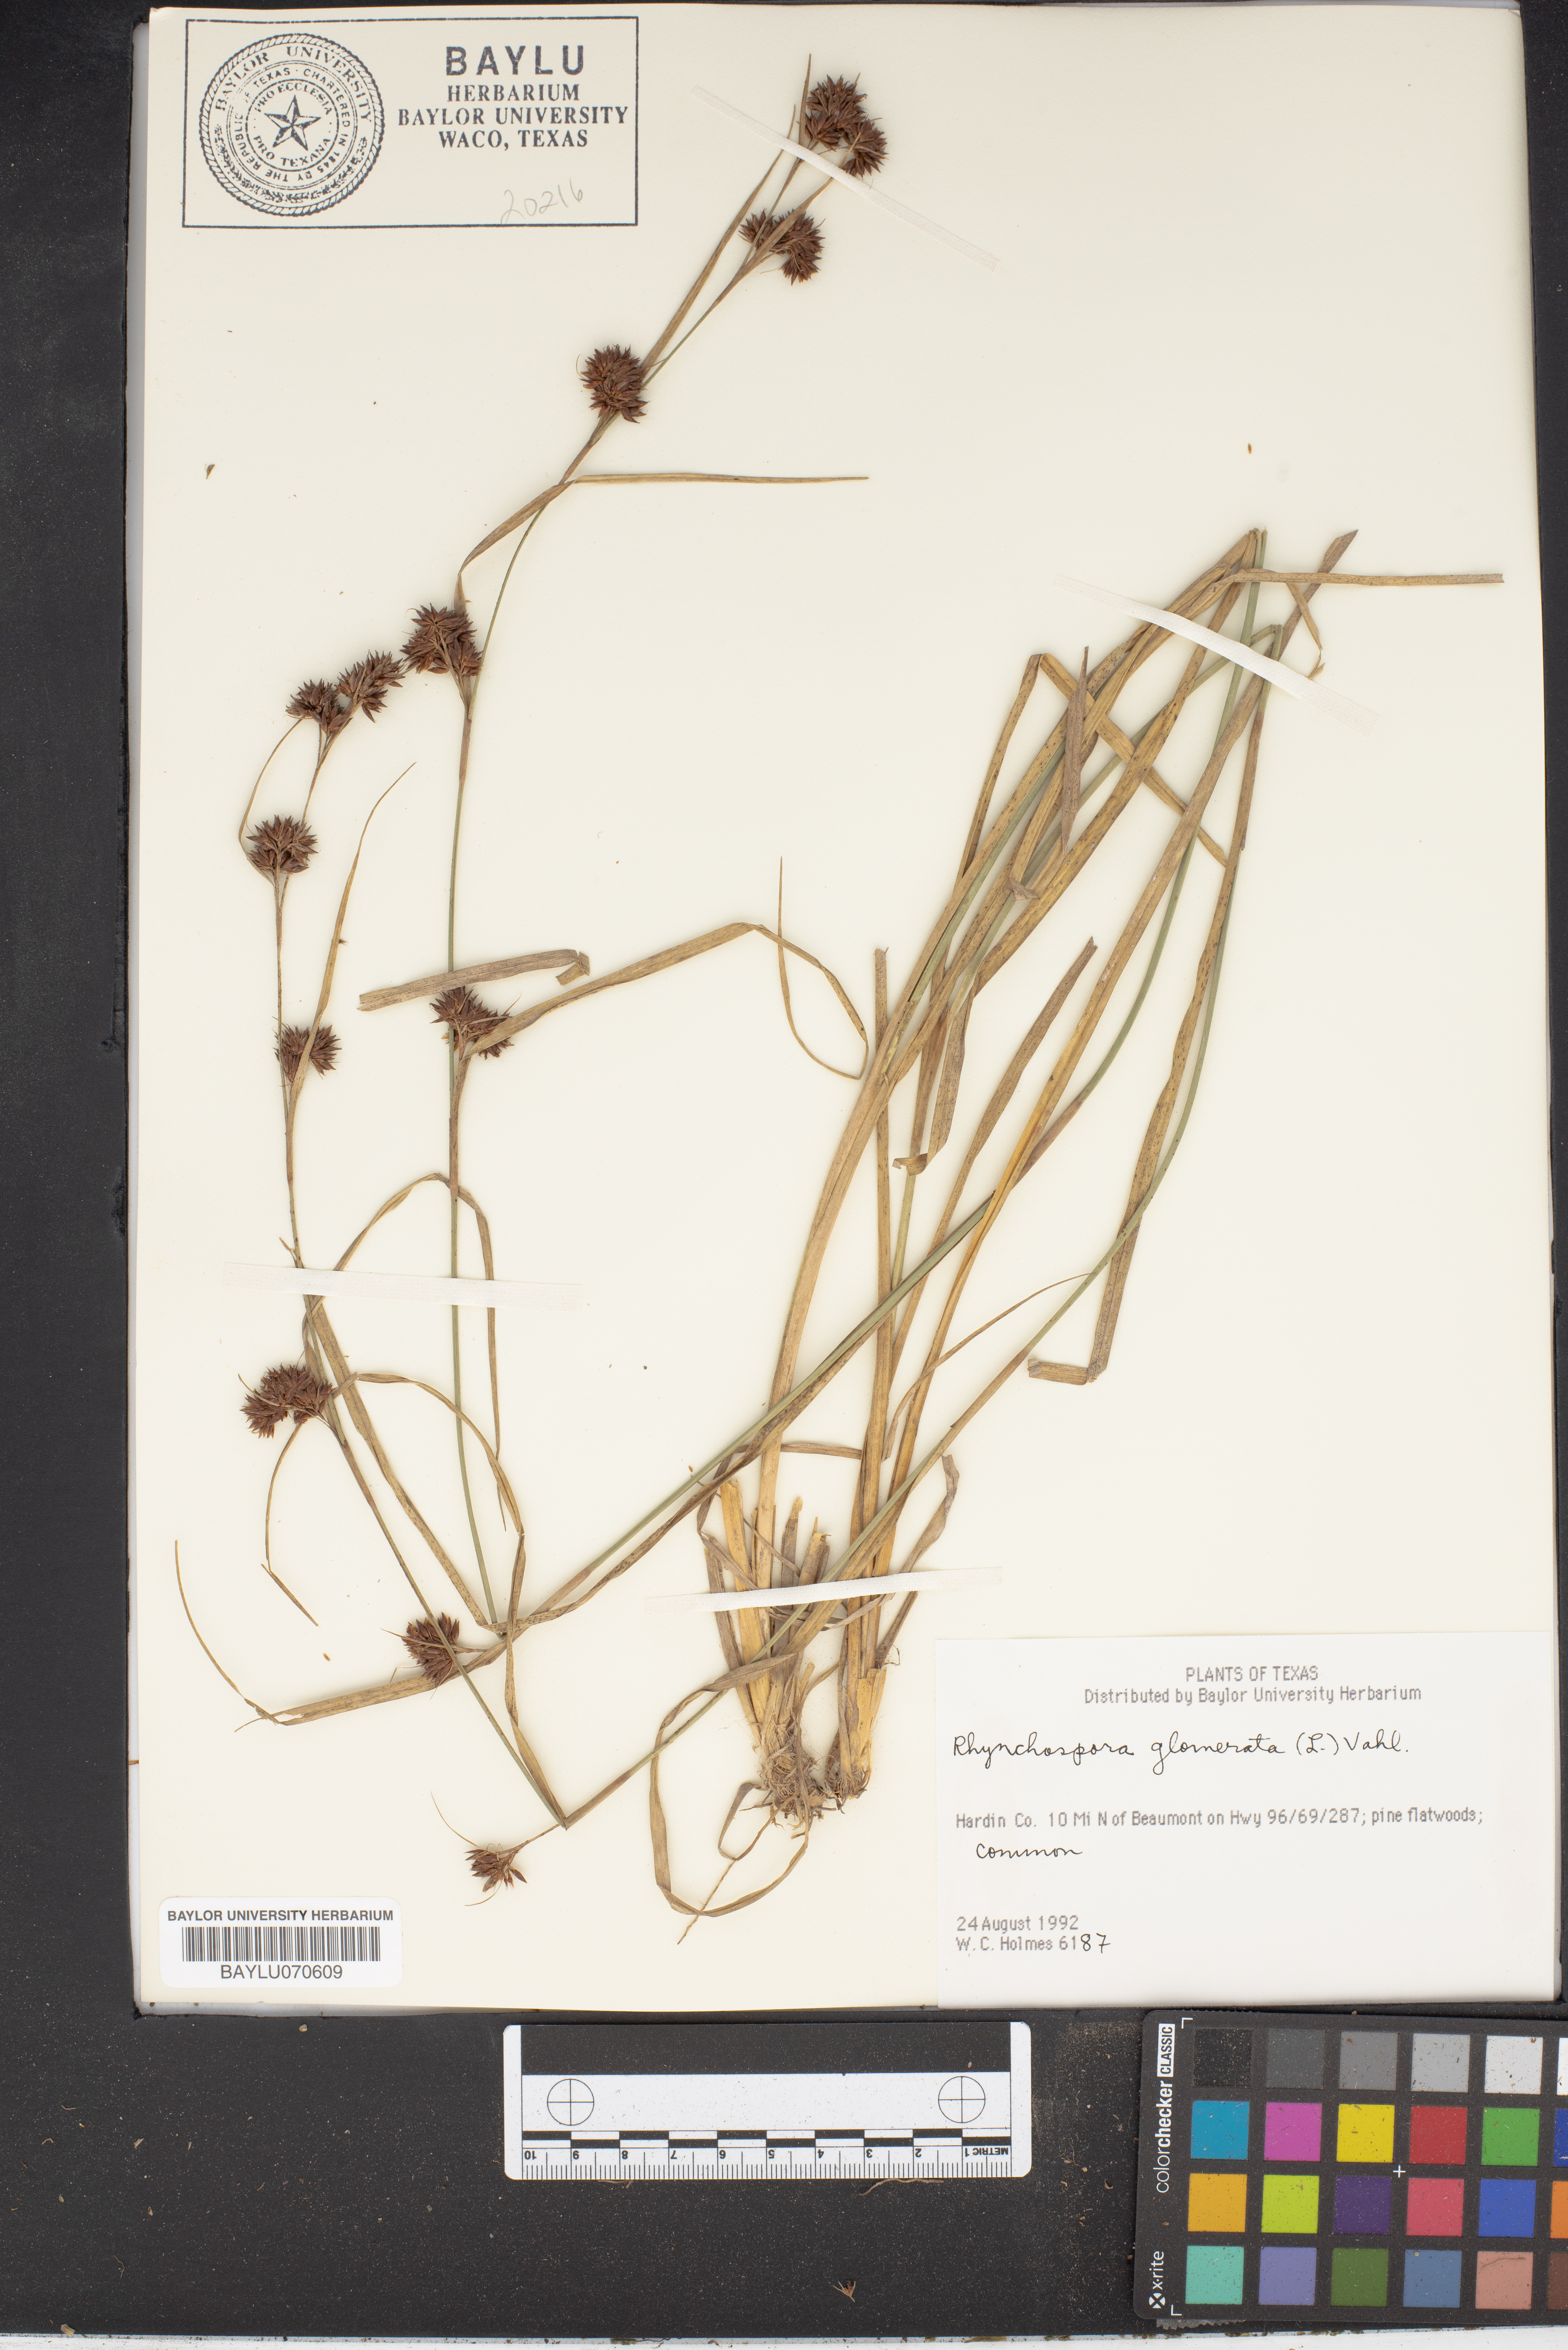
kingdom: Plantae
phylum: Tracheophyta
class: Liliopsida
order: Poales
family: Cyperaceae
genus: Rhynchospora
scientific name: Rhynchospora glomerata
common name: Cluster beak sedge
